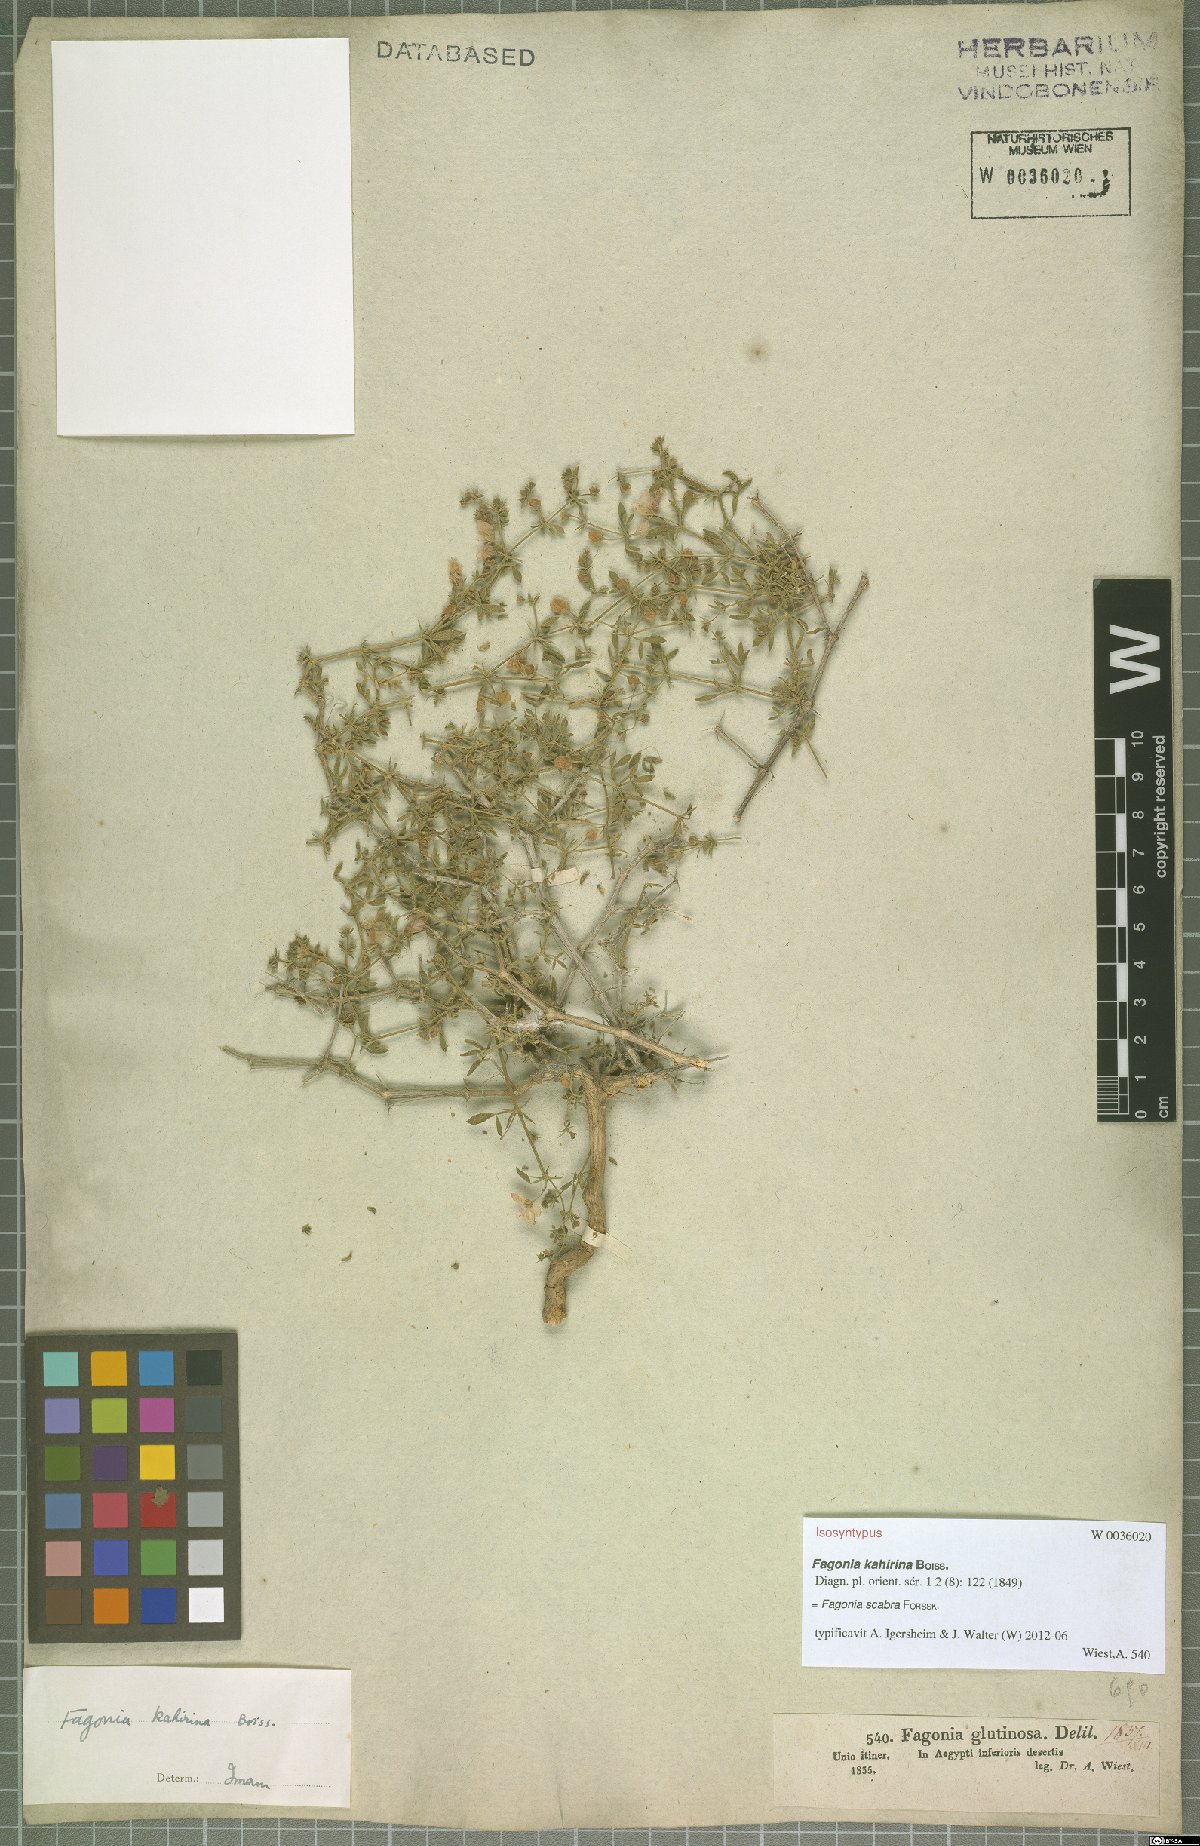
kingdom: Plantae
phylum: Tracheophyta
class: Magnoliopsida
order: Zygophyllales
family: Zygophyllaceae
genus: Fagonia
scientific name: Fagonia scabra
